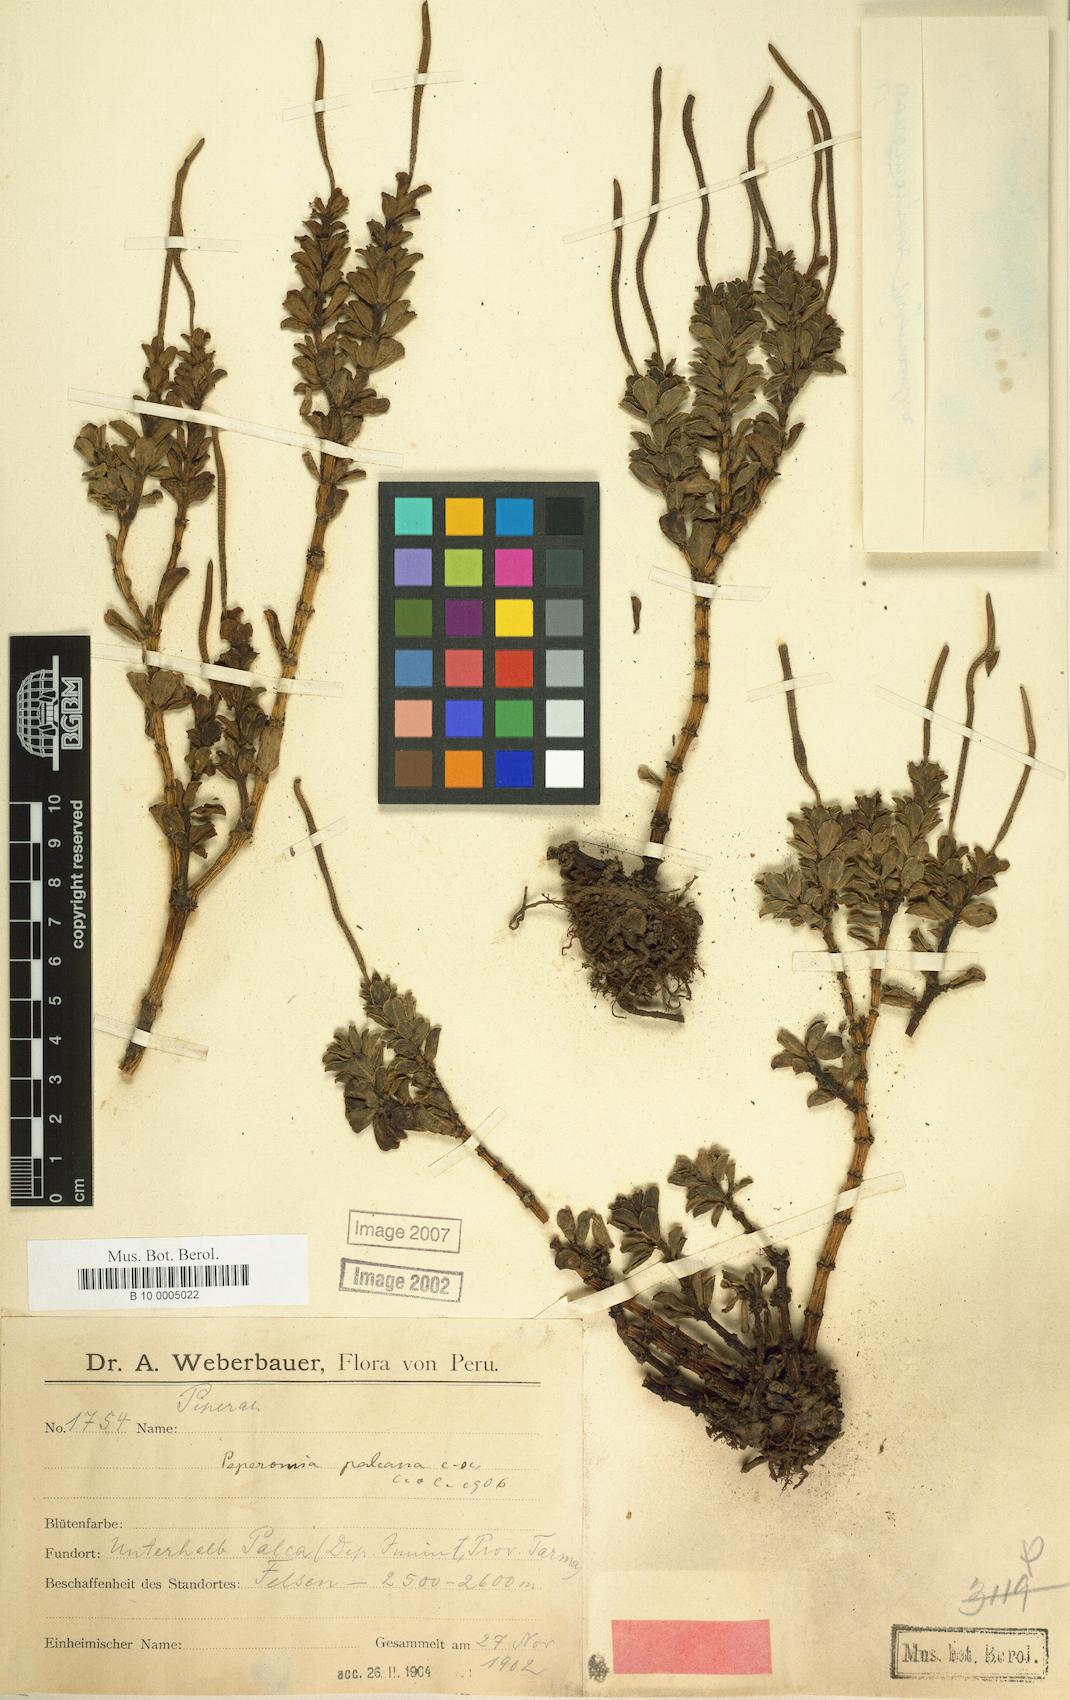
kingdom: Plantae
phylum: Tracheophyta
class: Magnoliopsida
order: Piperales
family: Piperaceae
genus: Peperomia
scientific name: Peperomia palcana
